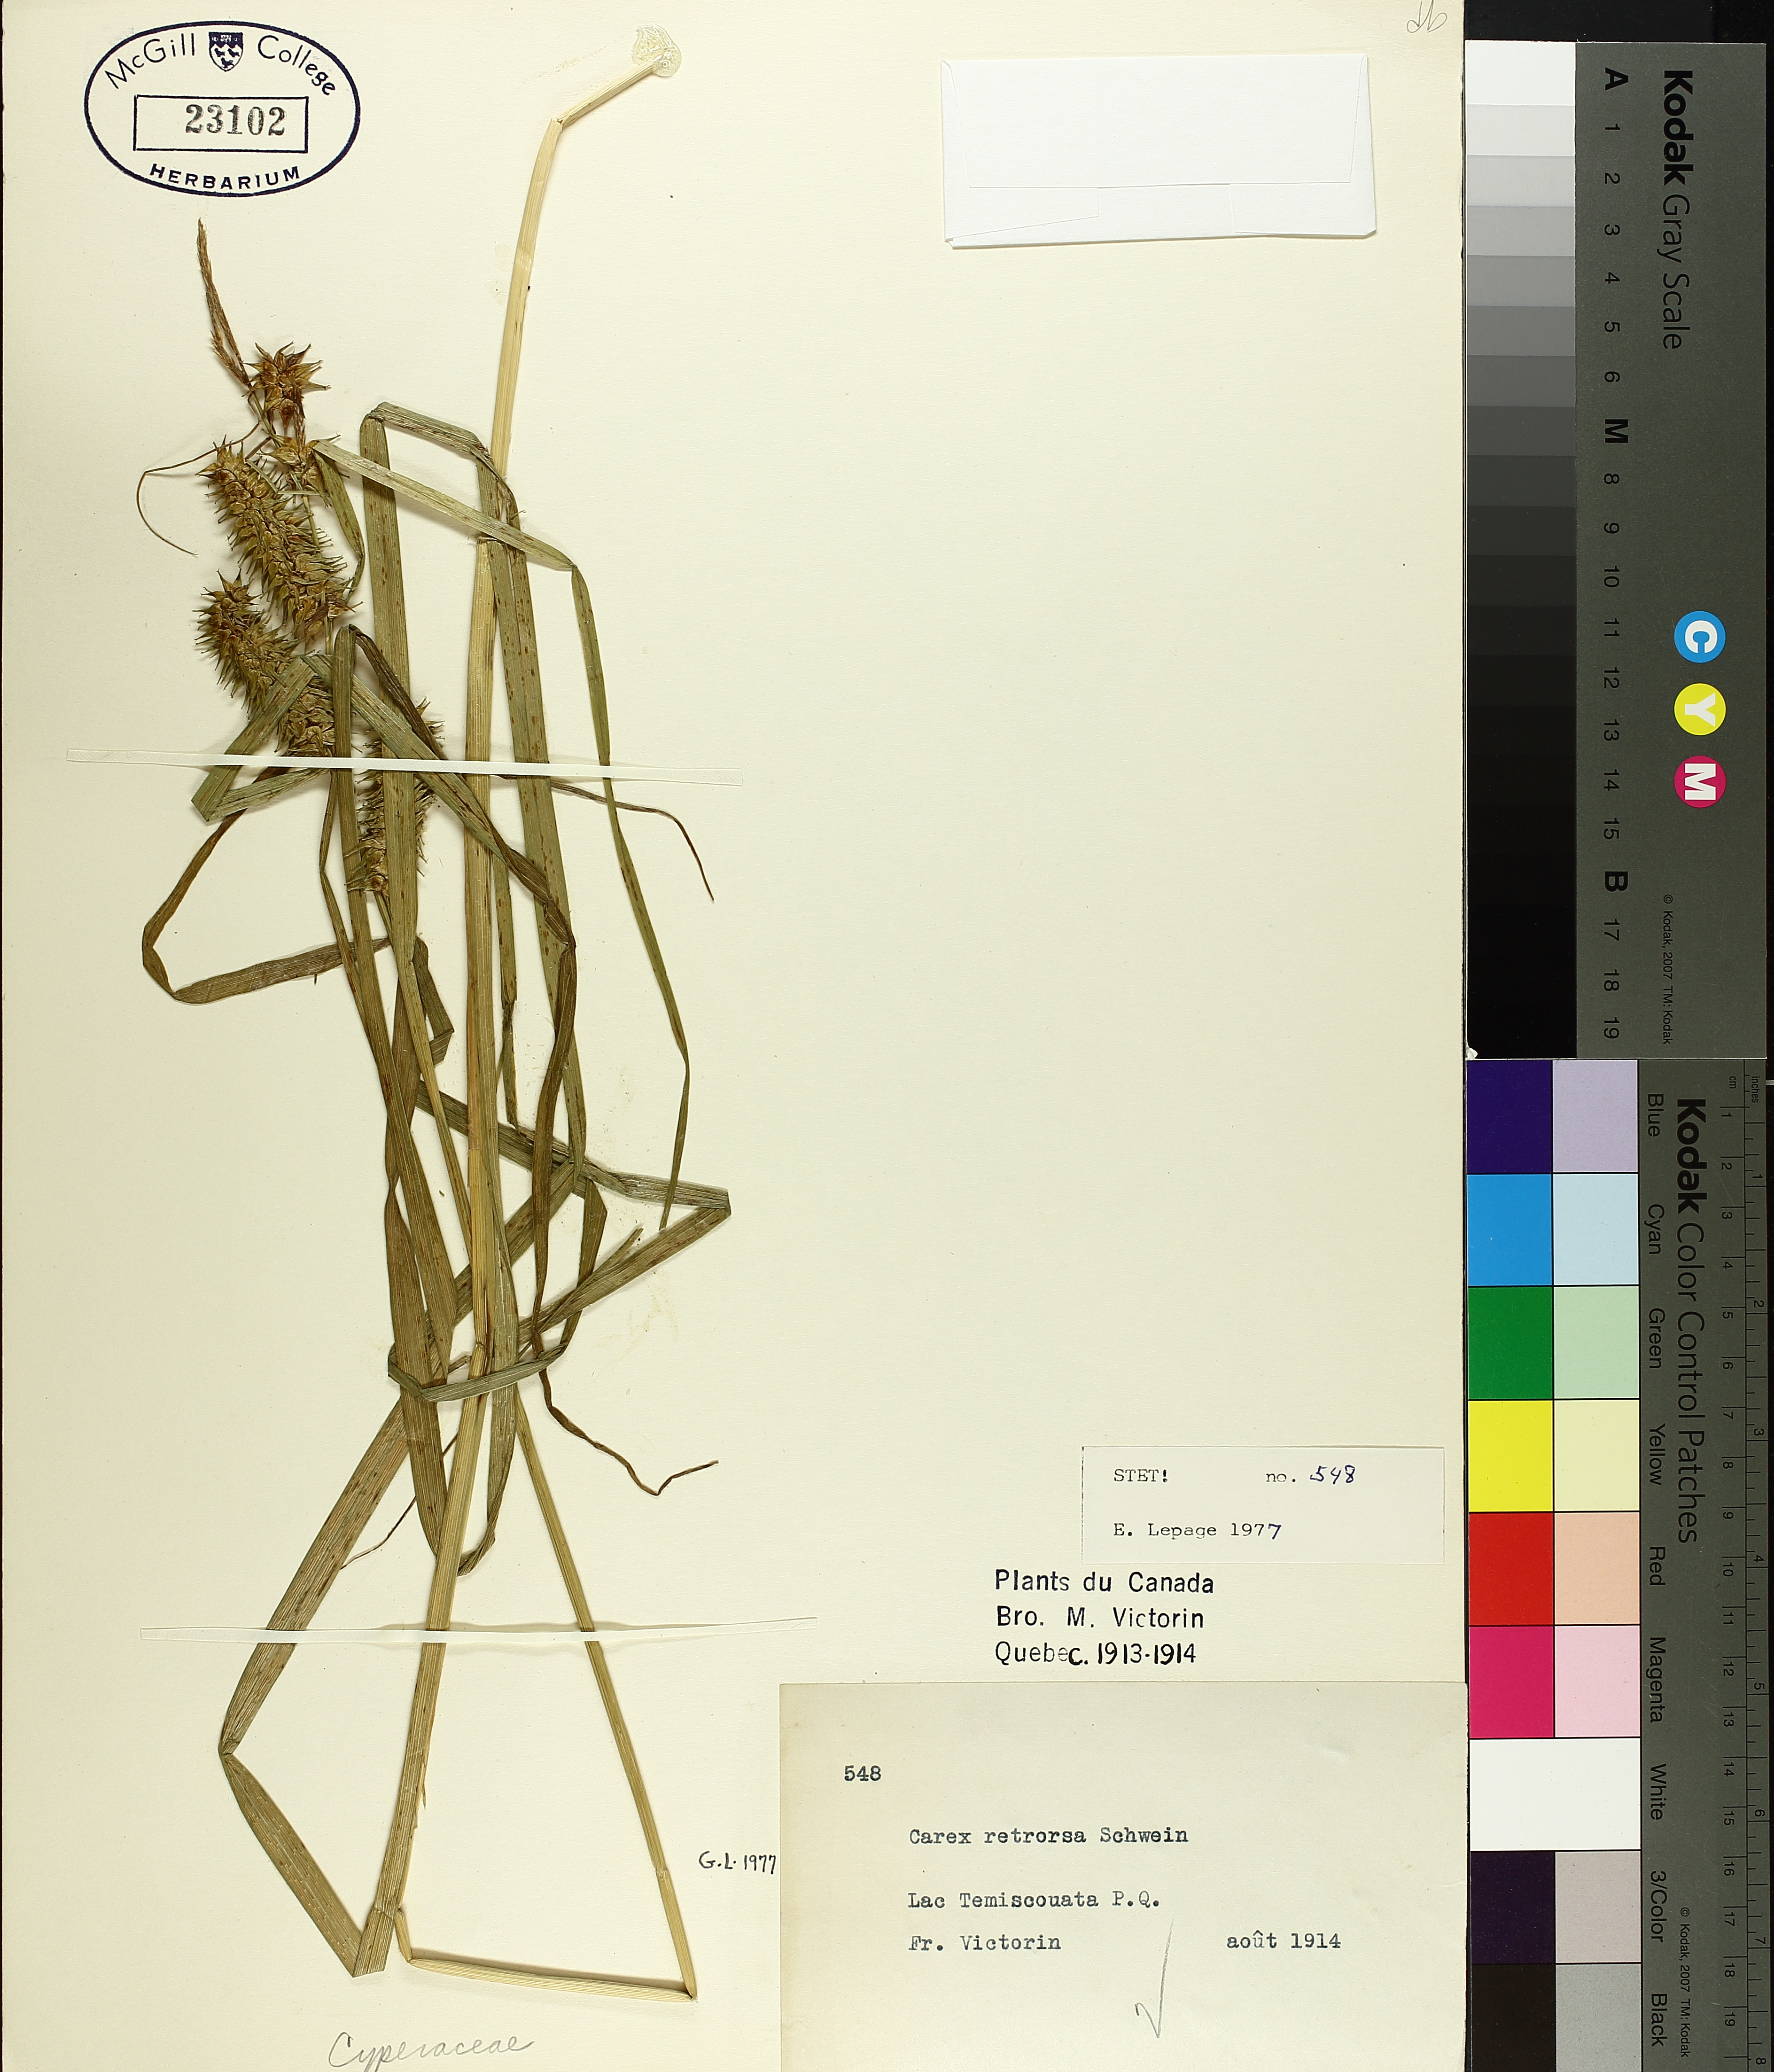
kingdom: Plantae
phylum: Tracheophyta
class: Liliopsida
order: Poales
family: Cyperaceae
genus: Carex
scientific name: Carex retrorsa
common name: Knot-sheath sedge
